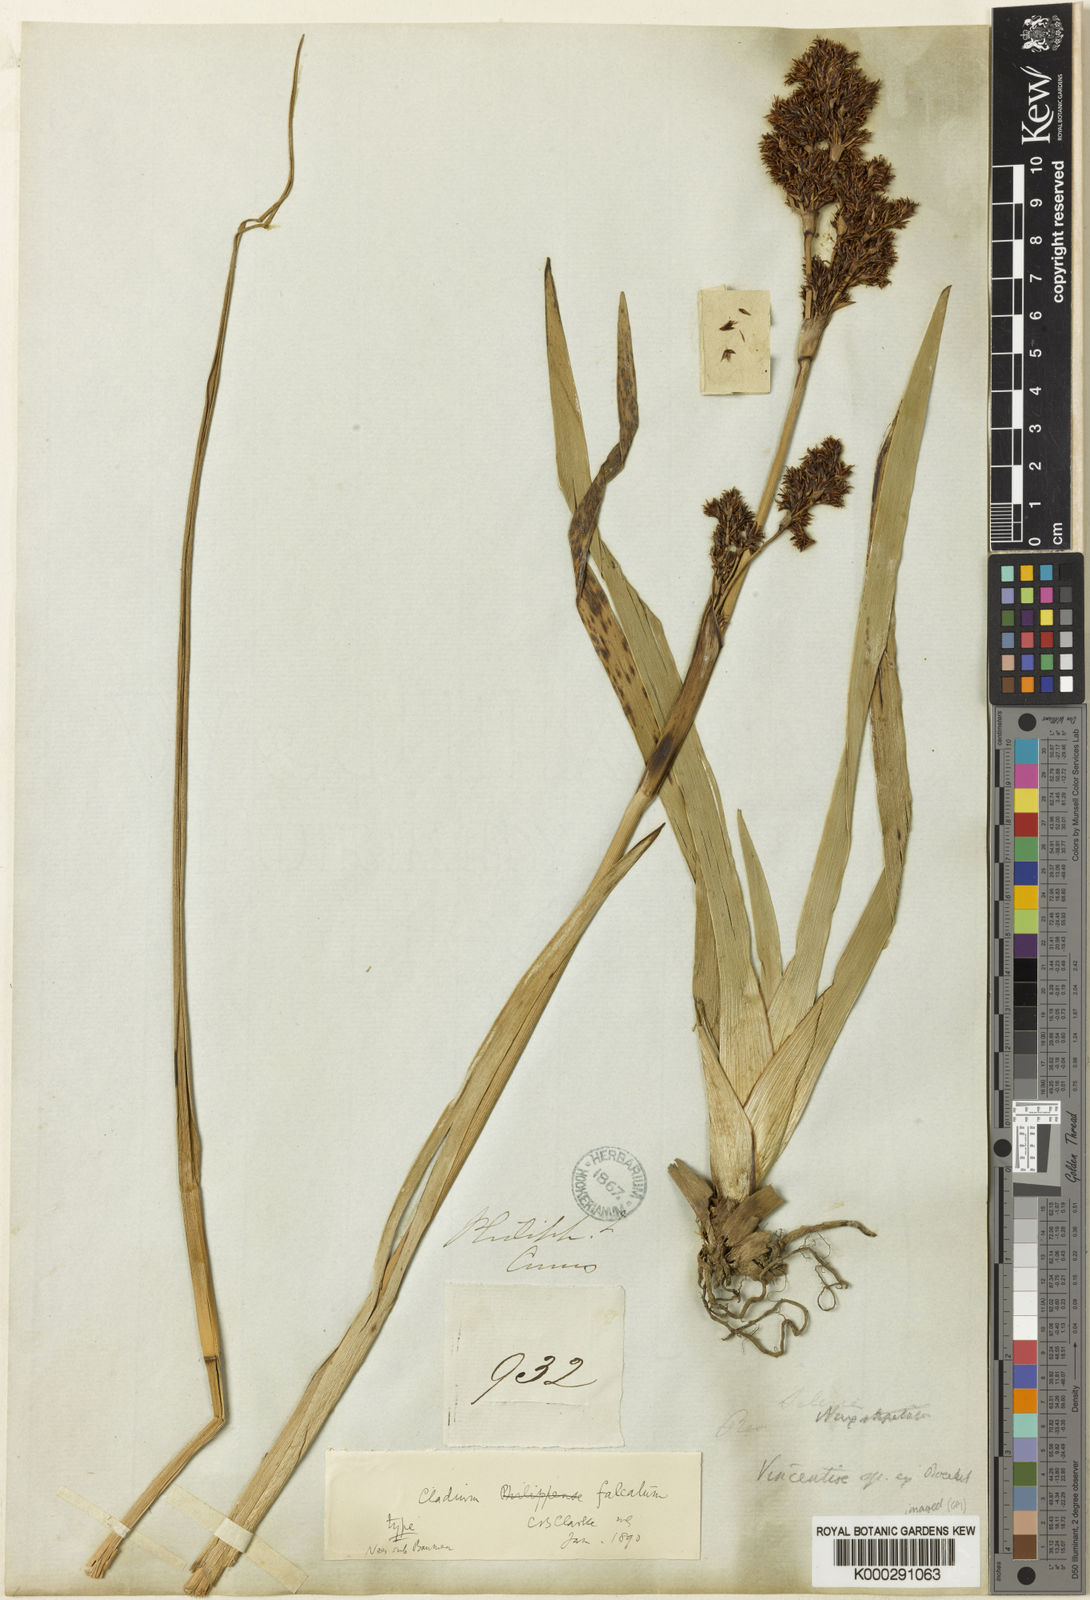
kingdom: Plantae
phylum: Tracheophyta
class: Liliopsida
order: Poales
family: Cyperaceae
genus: Machaerina
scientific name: Machaerina falcata
